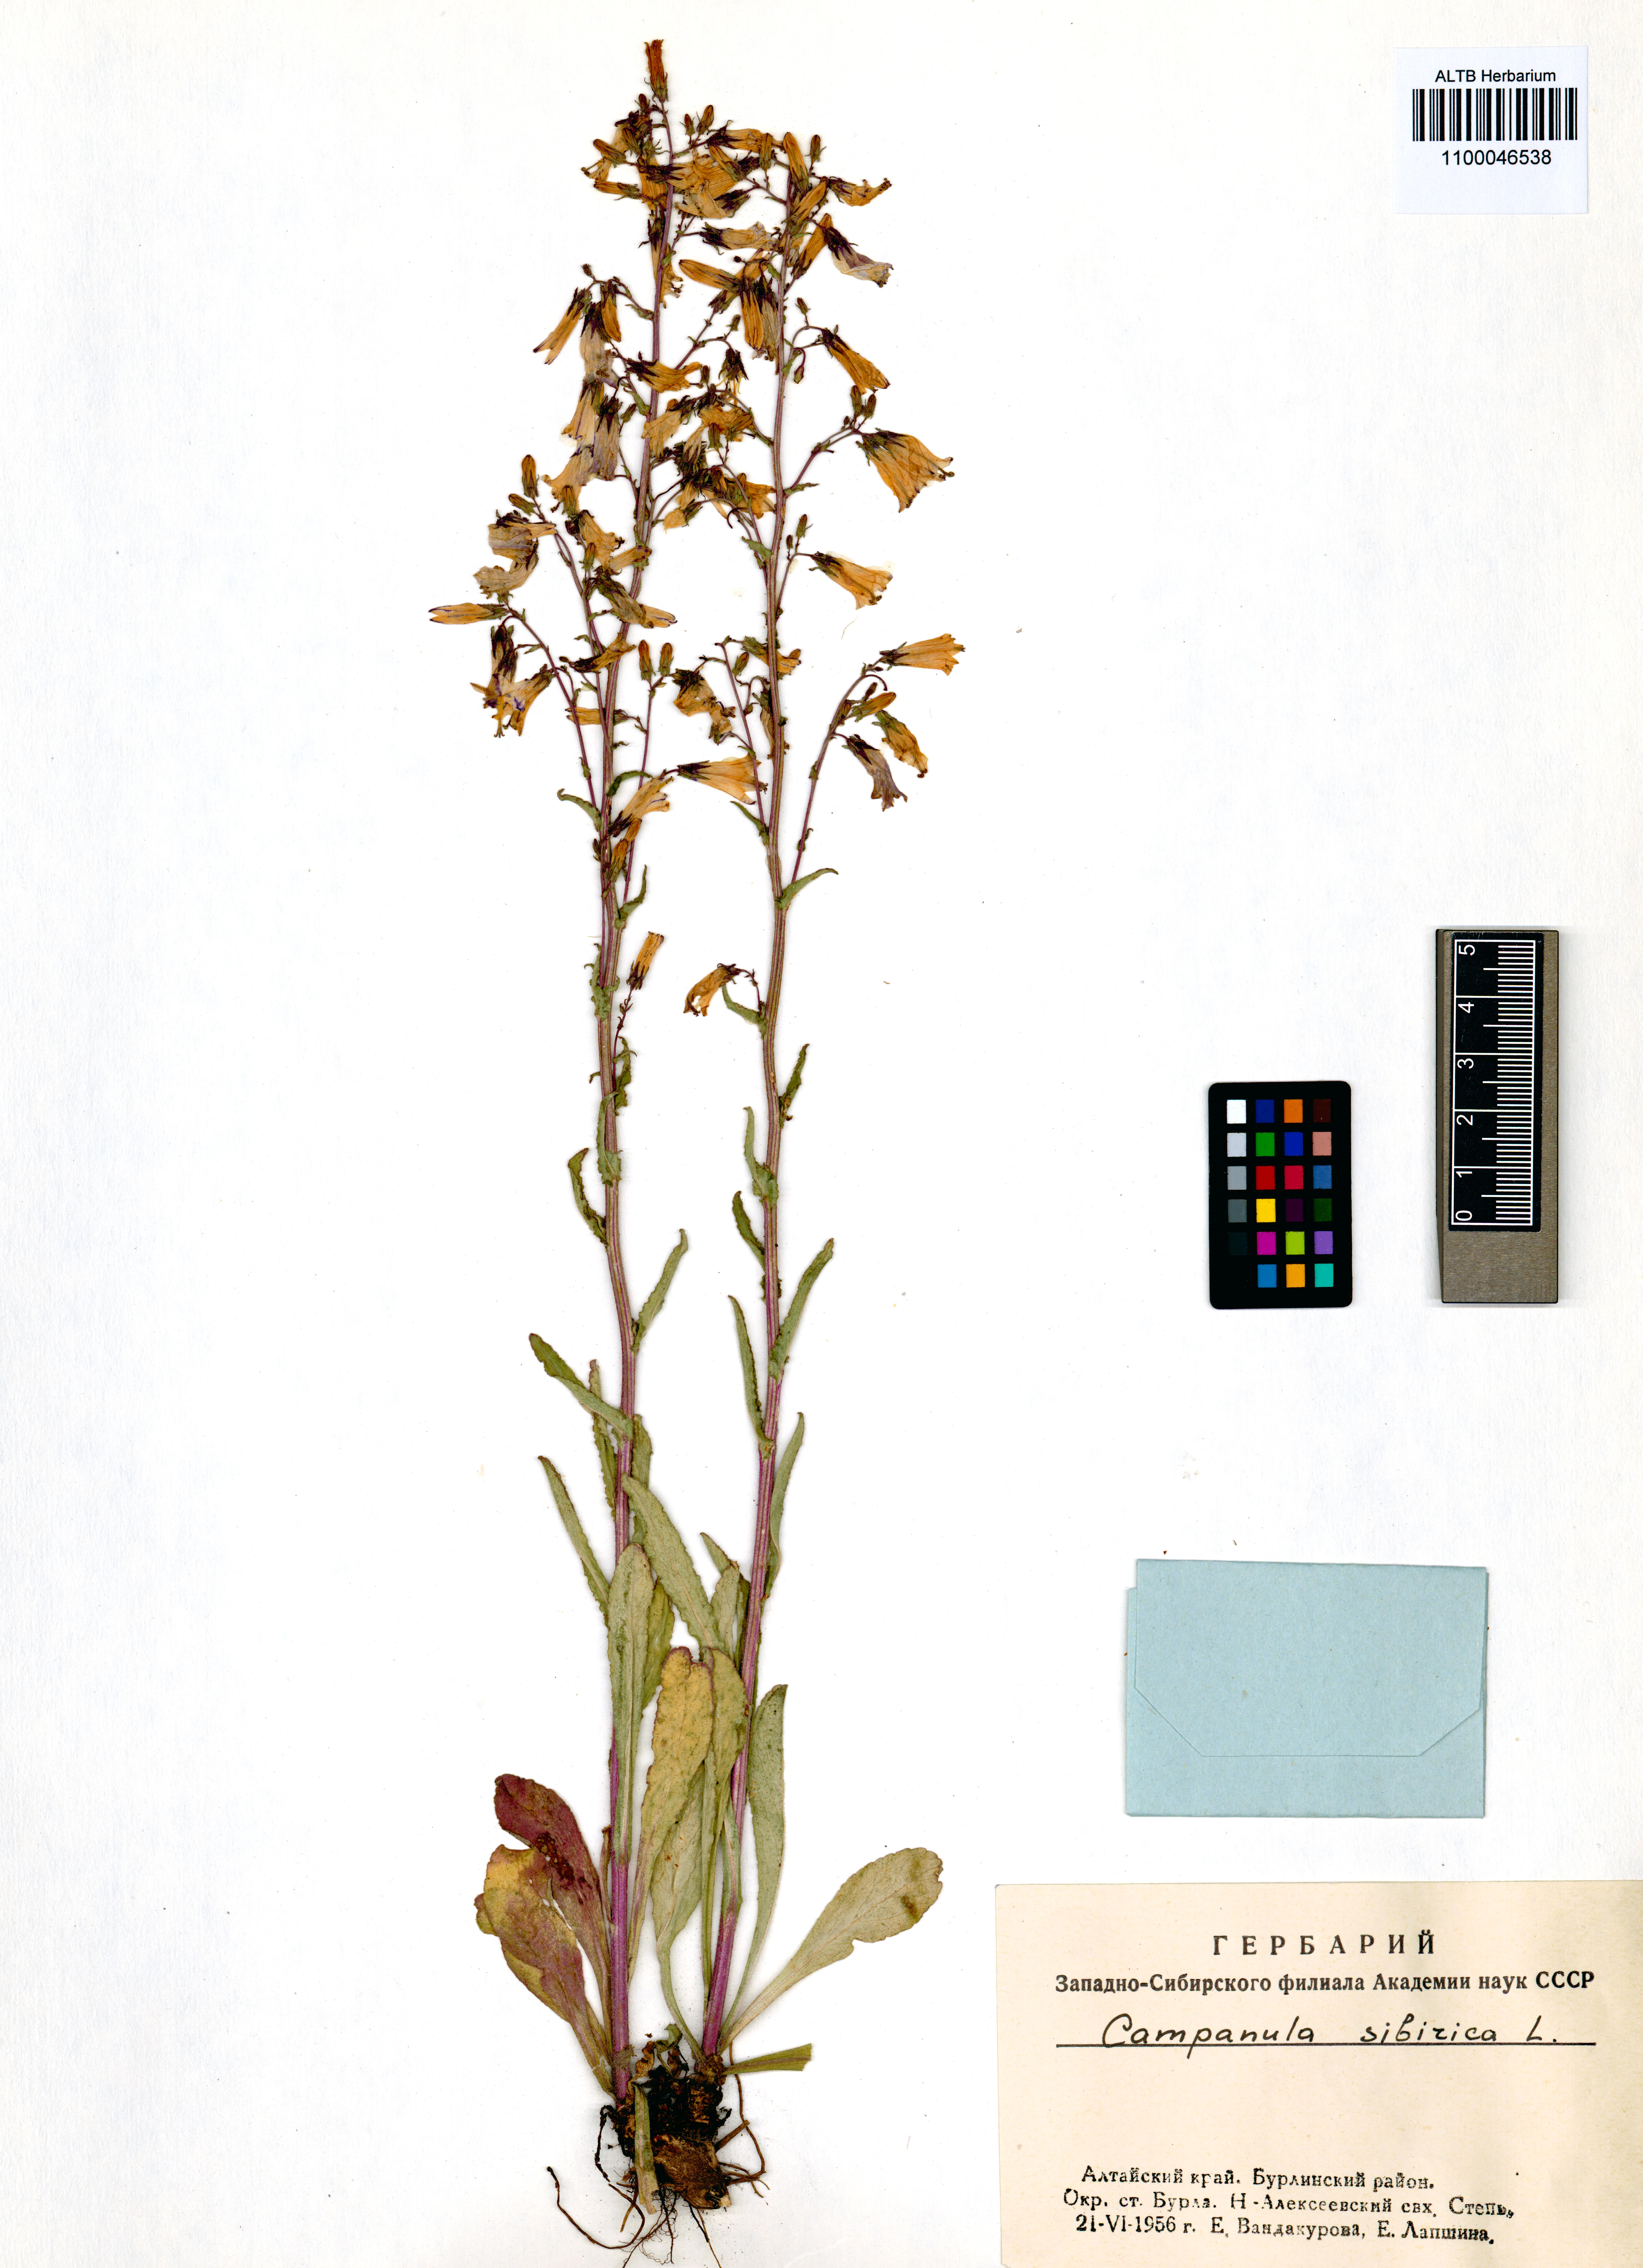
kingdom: Plantae
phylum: Tracheophyta
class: Magnoliopsida
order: Asterales
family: Campanulaceae
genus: Campanula
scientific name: Campanula sibirica
